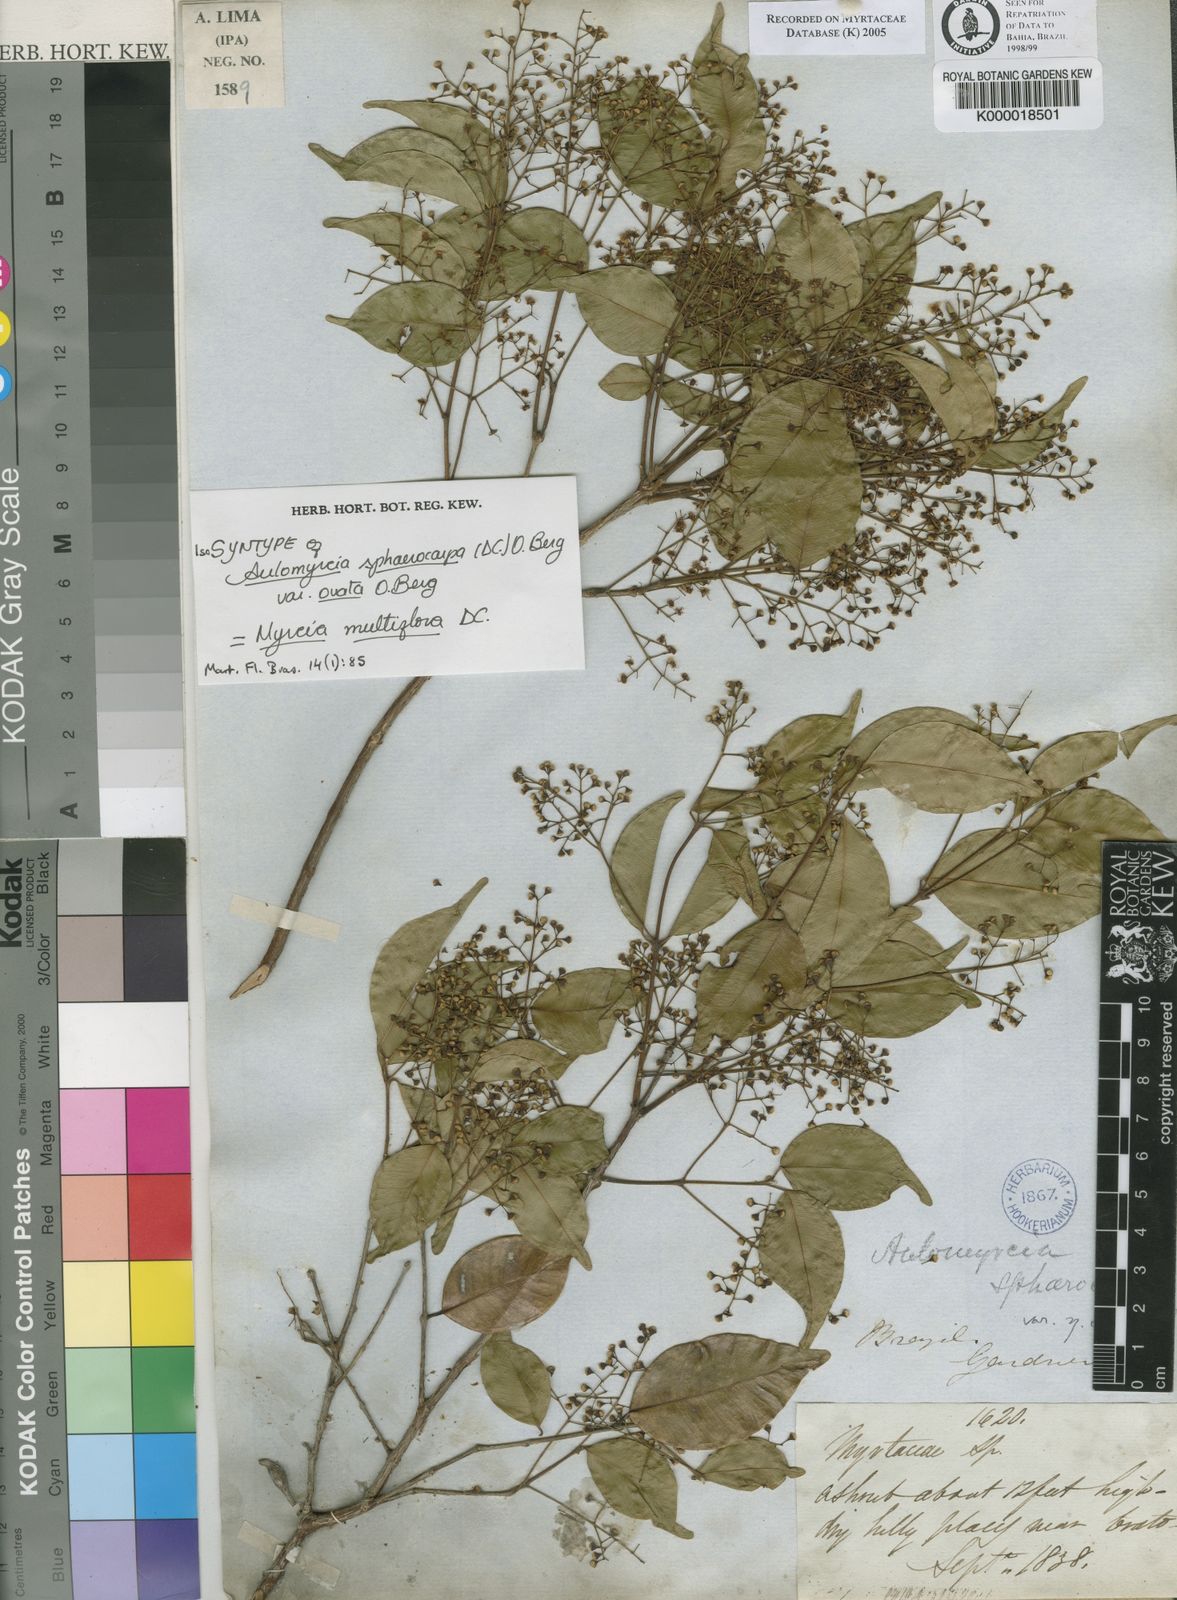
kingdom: Plantae
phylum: Tracheophyta
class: Magnoliopsida
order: Myrtales
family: Myrtaceae
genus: Myrcia
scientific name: Myrcia multiflora
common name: Pedra hume
